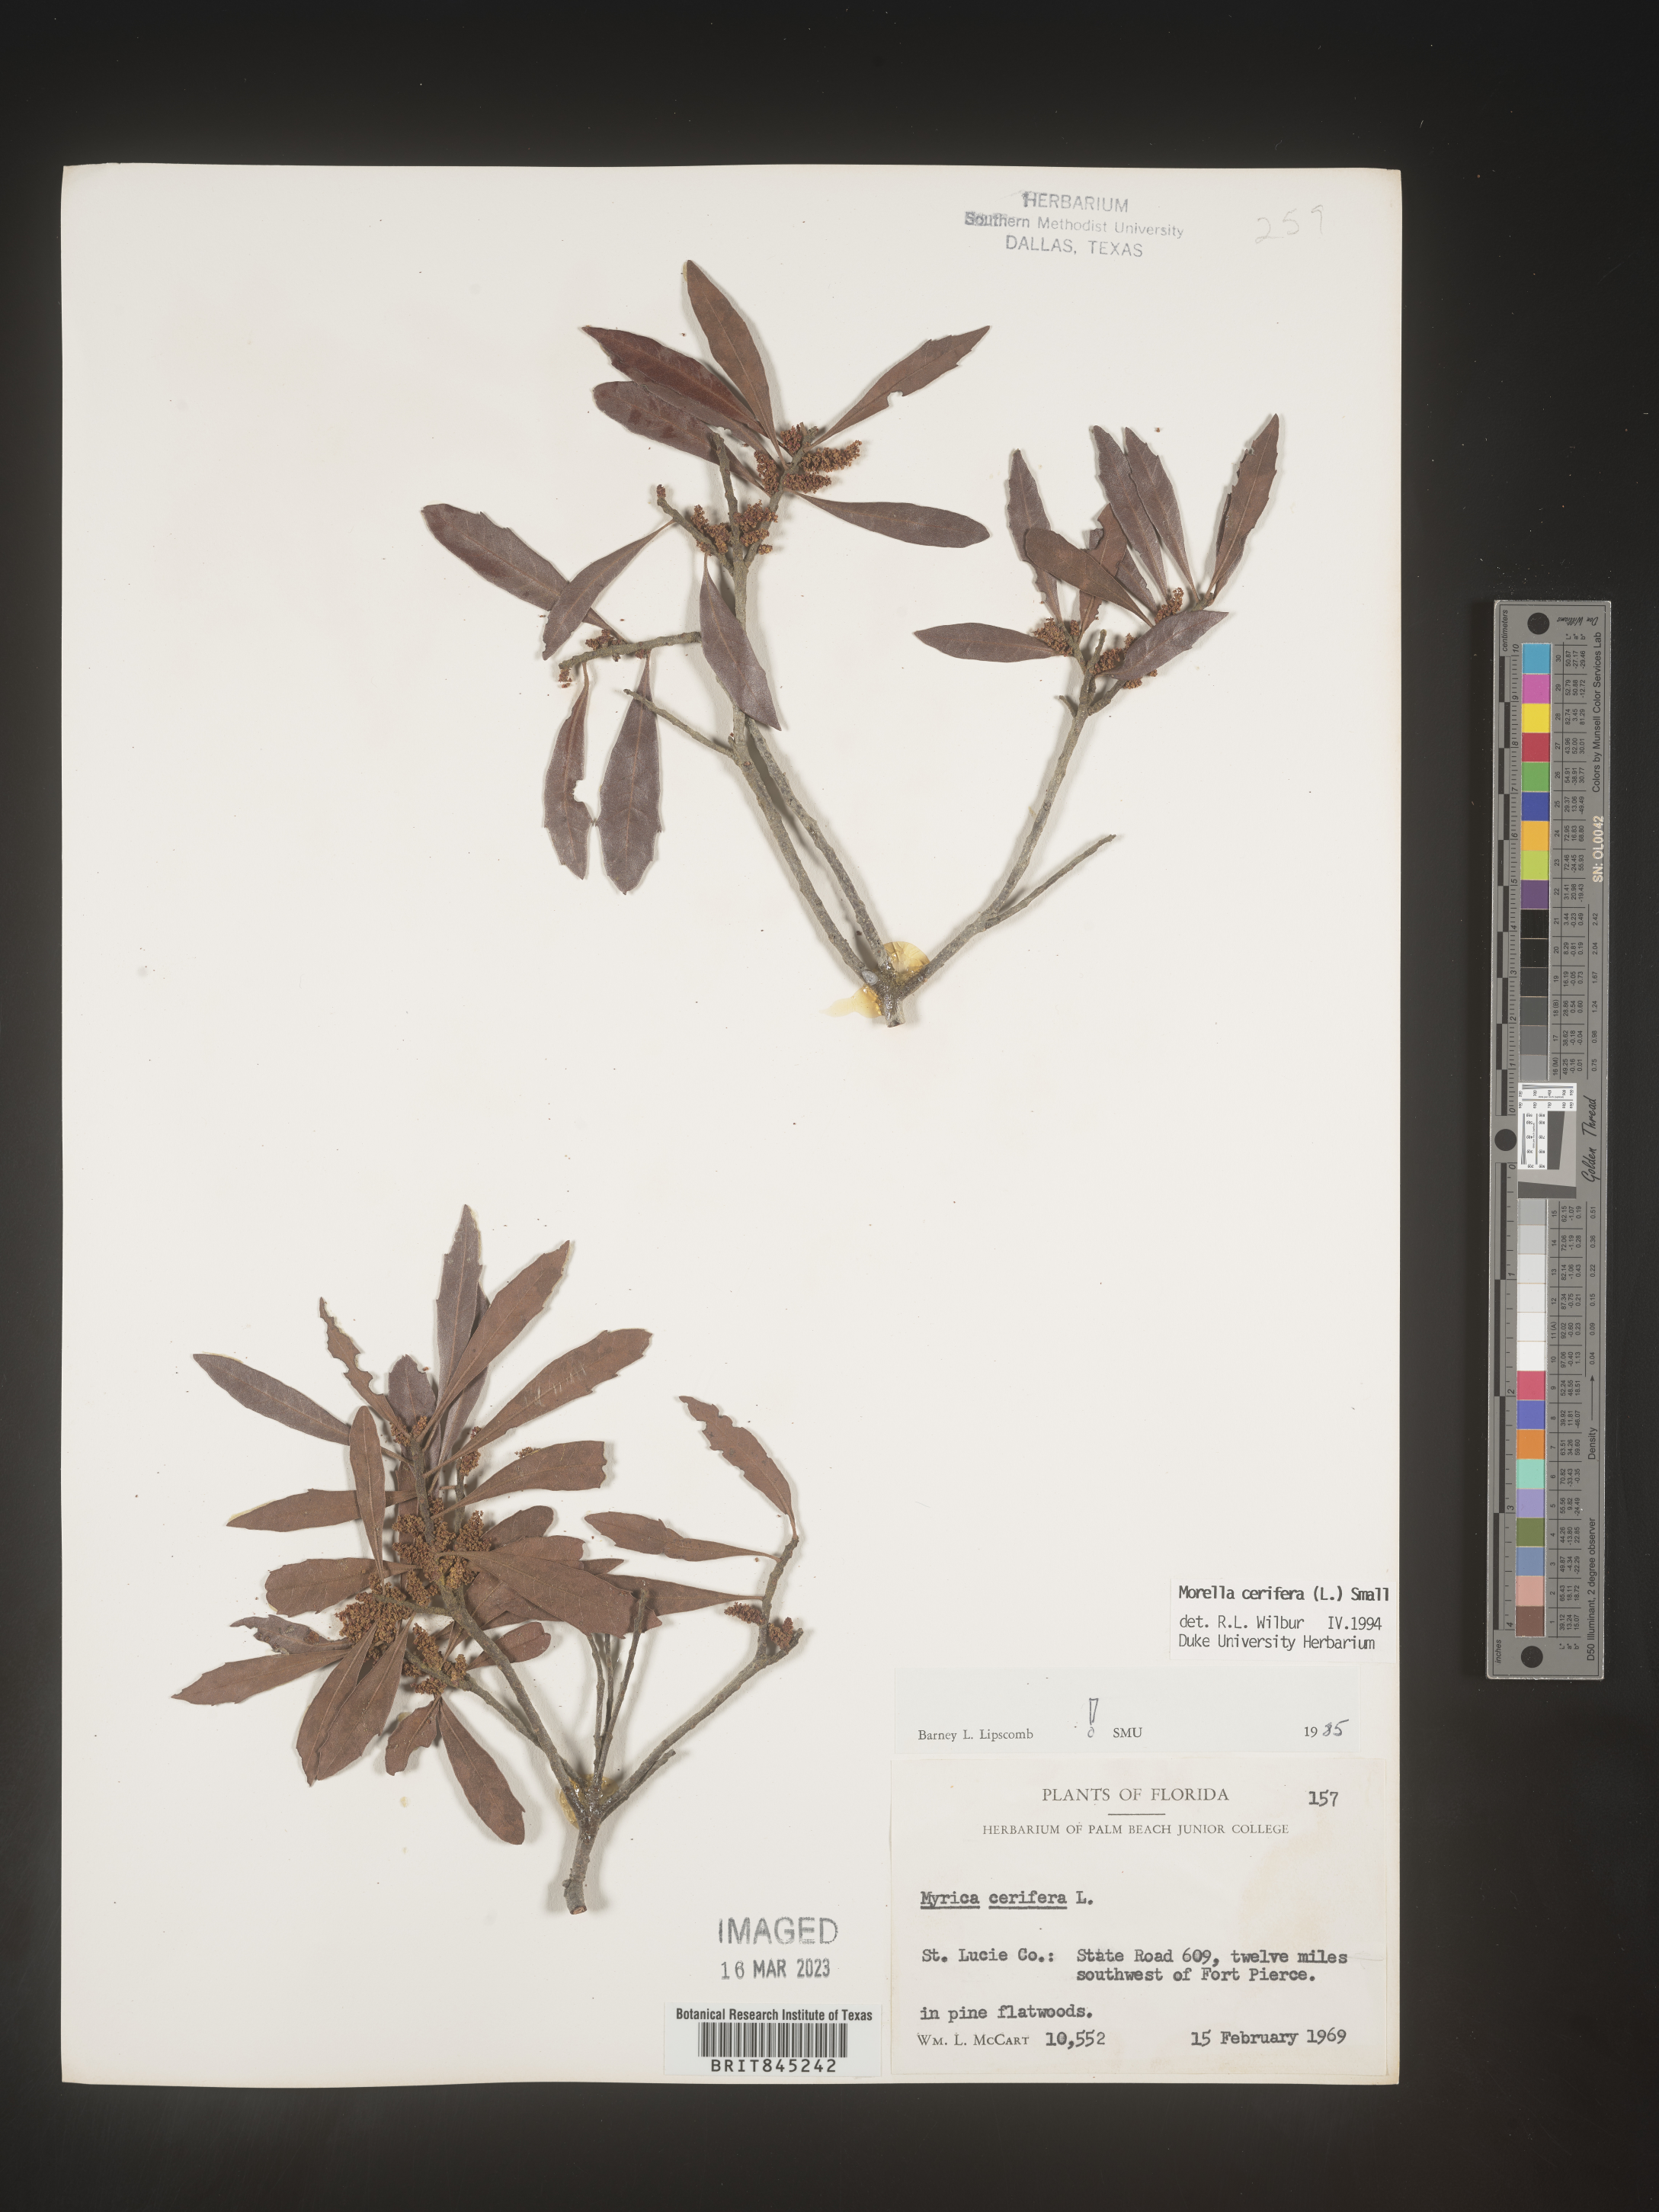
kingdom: Plantae
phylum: Tracheophyta
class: Magnoliopsida
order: Fagales
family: Myricaceae
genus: Morella
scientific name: Morella cerifera
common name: Wax myrtle
